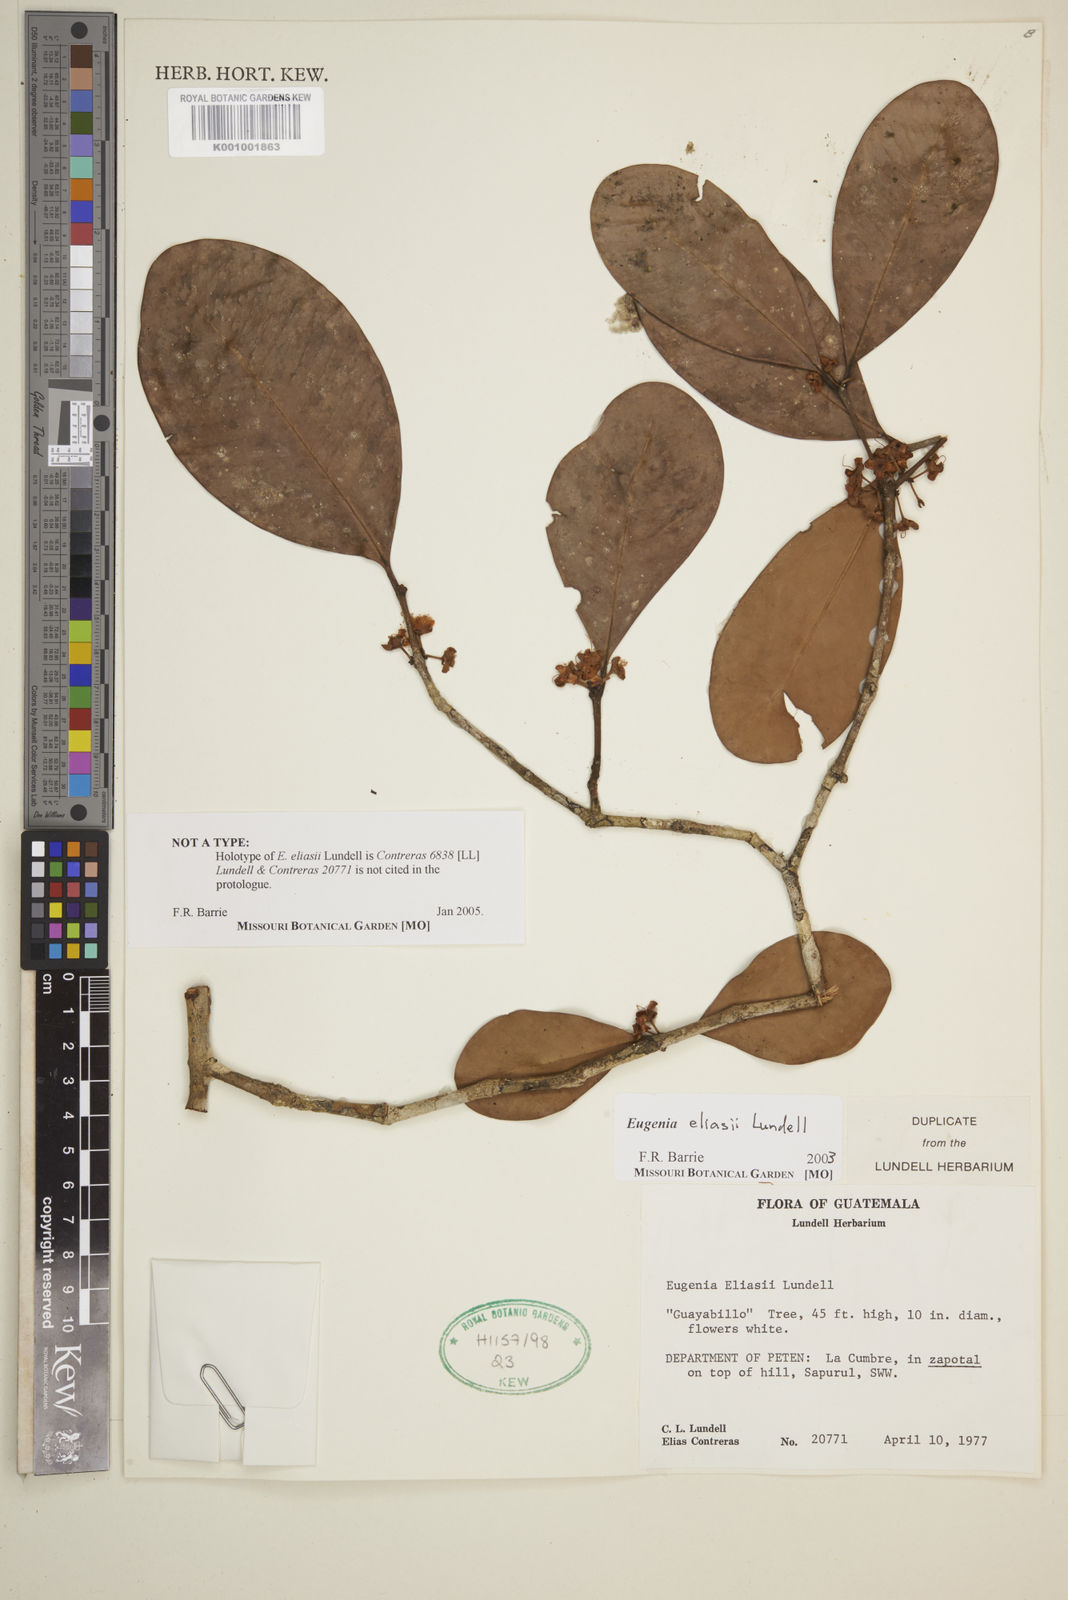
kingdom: Plantae
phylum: Tracheophyta
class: Magnoliopsida
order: Myrtales
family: Myrtaceae
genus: Eugenia
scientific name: Eugenia eliasii
